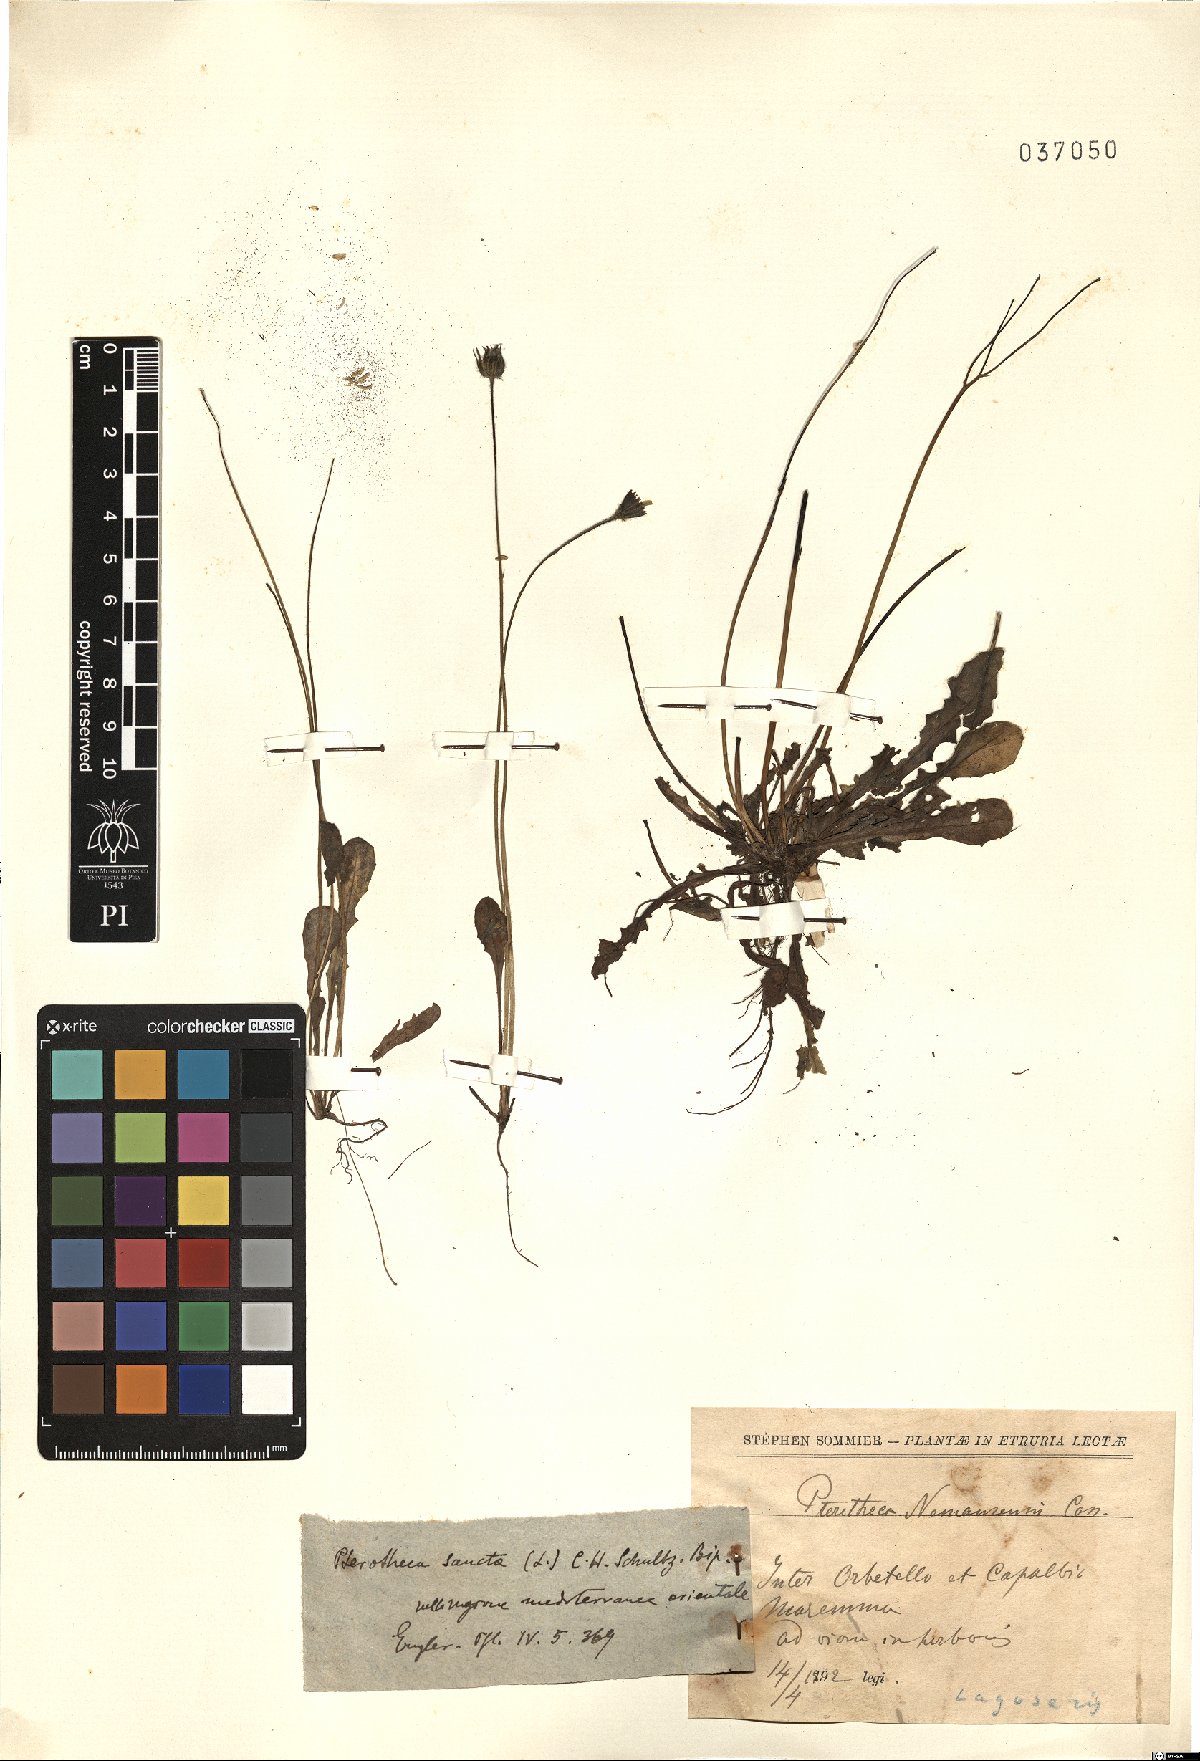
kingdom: Plantae
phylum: Tracheophyta
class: Magnoliopsida
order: Asterales
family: Asteraceae
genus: Crepis
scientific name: Crepis sancta
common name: Hawk's-beard
